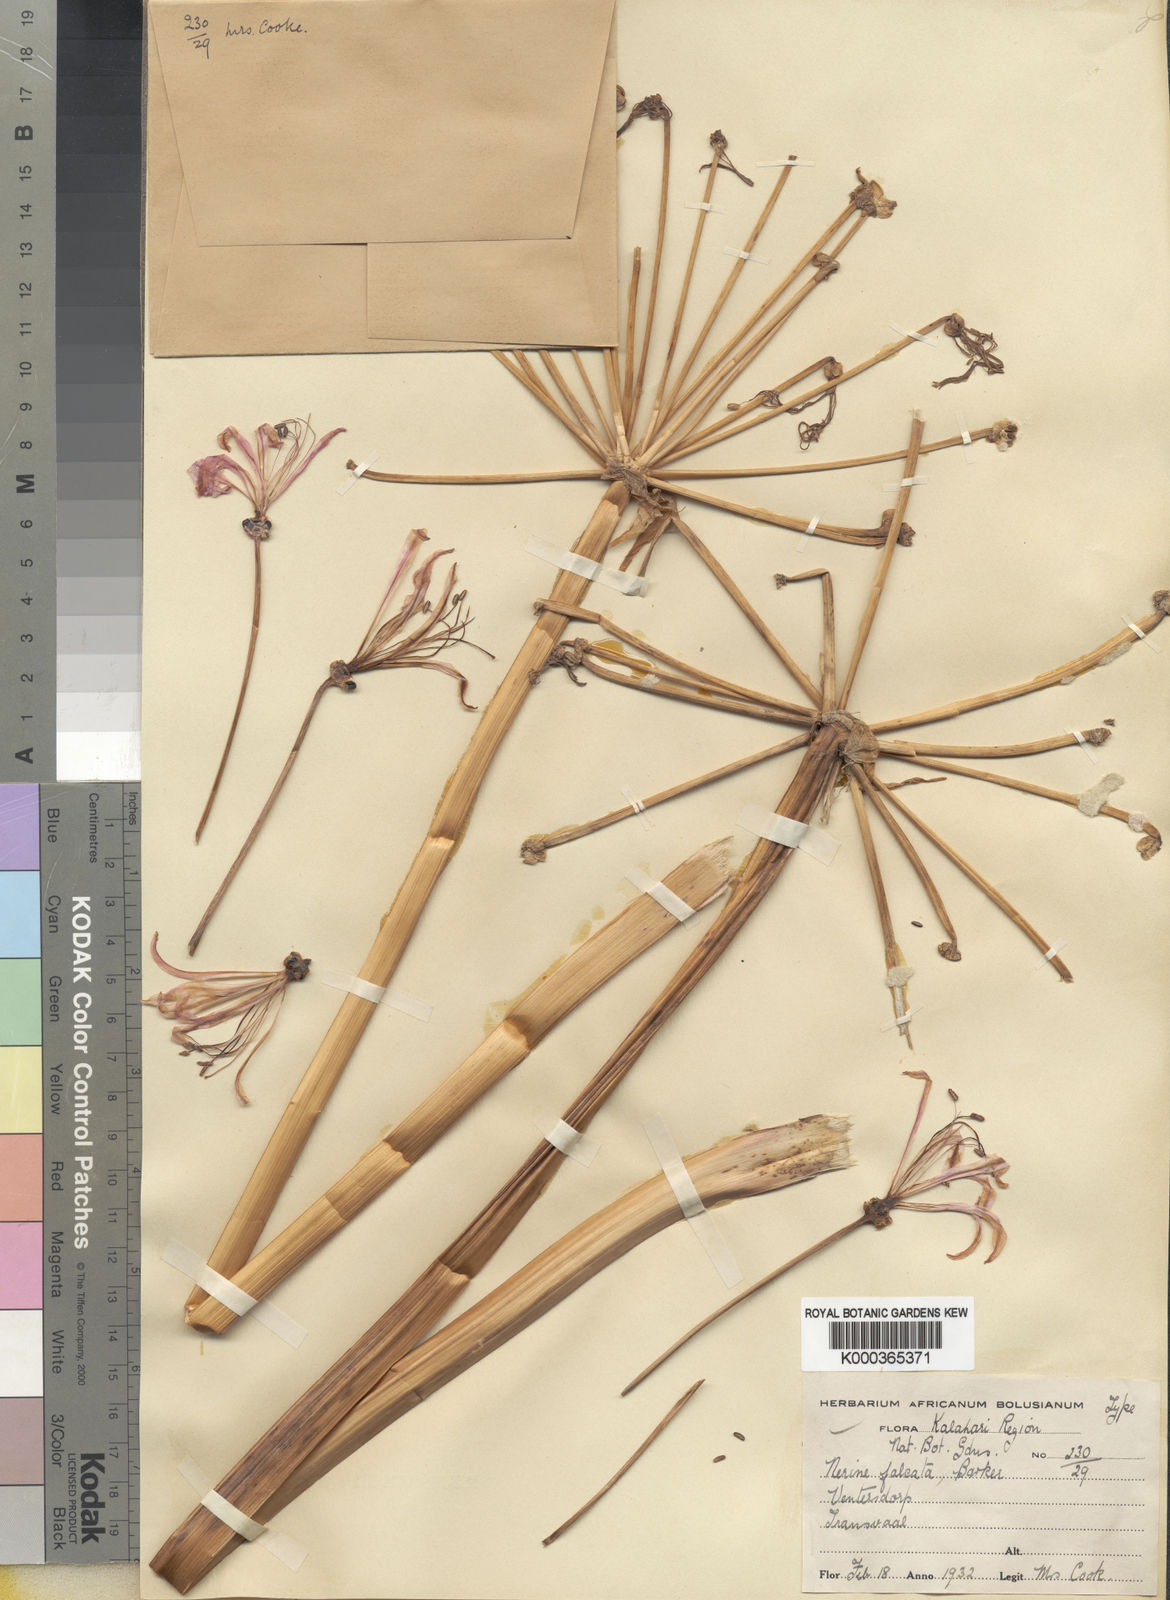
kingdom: Plantae
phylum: Tracheophyta
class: Liliopsida
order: Asparagales
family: Amaryllidaceae
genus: Nerine
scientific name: Nerine krigei
